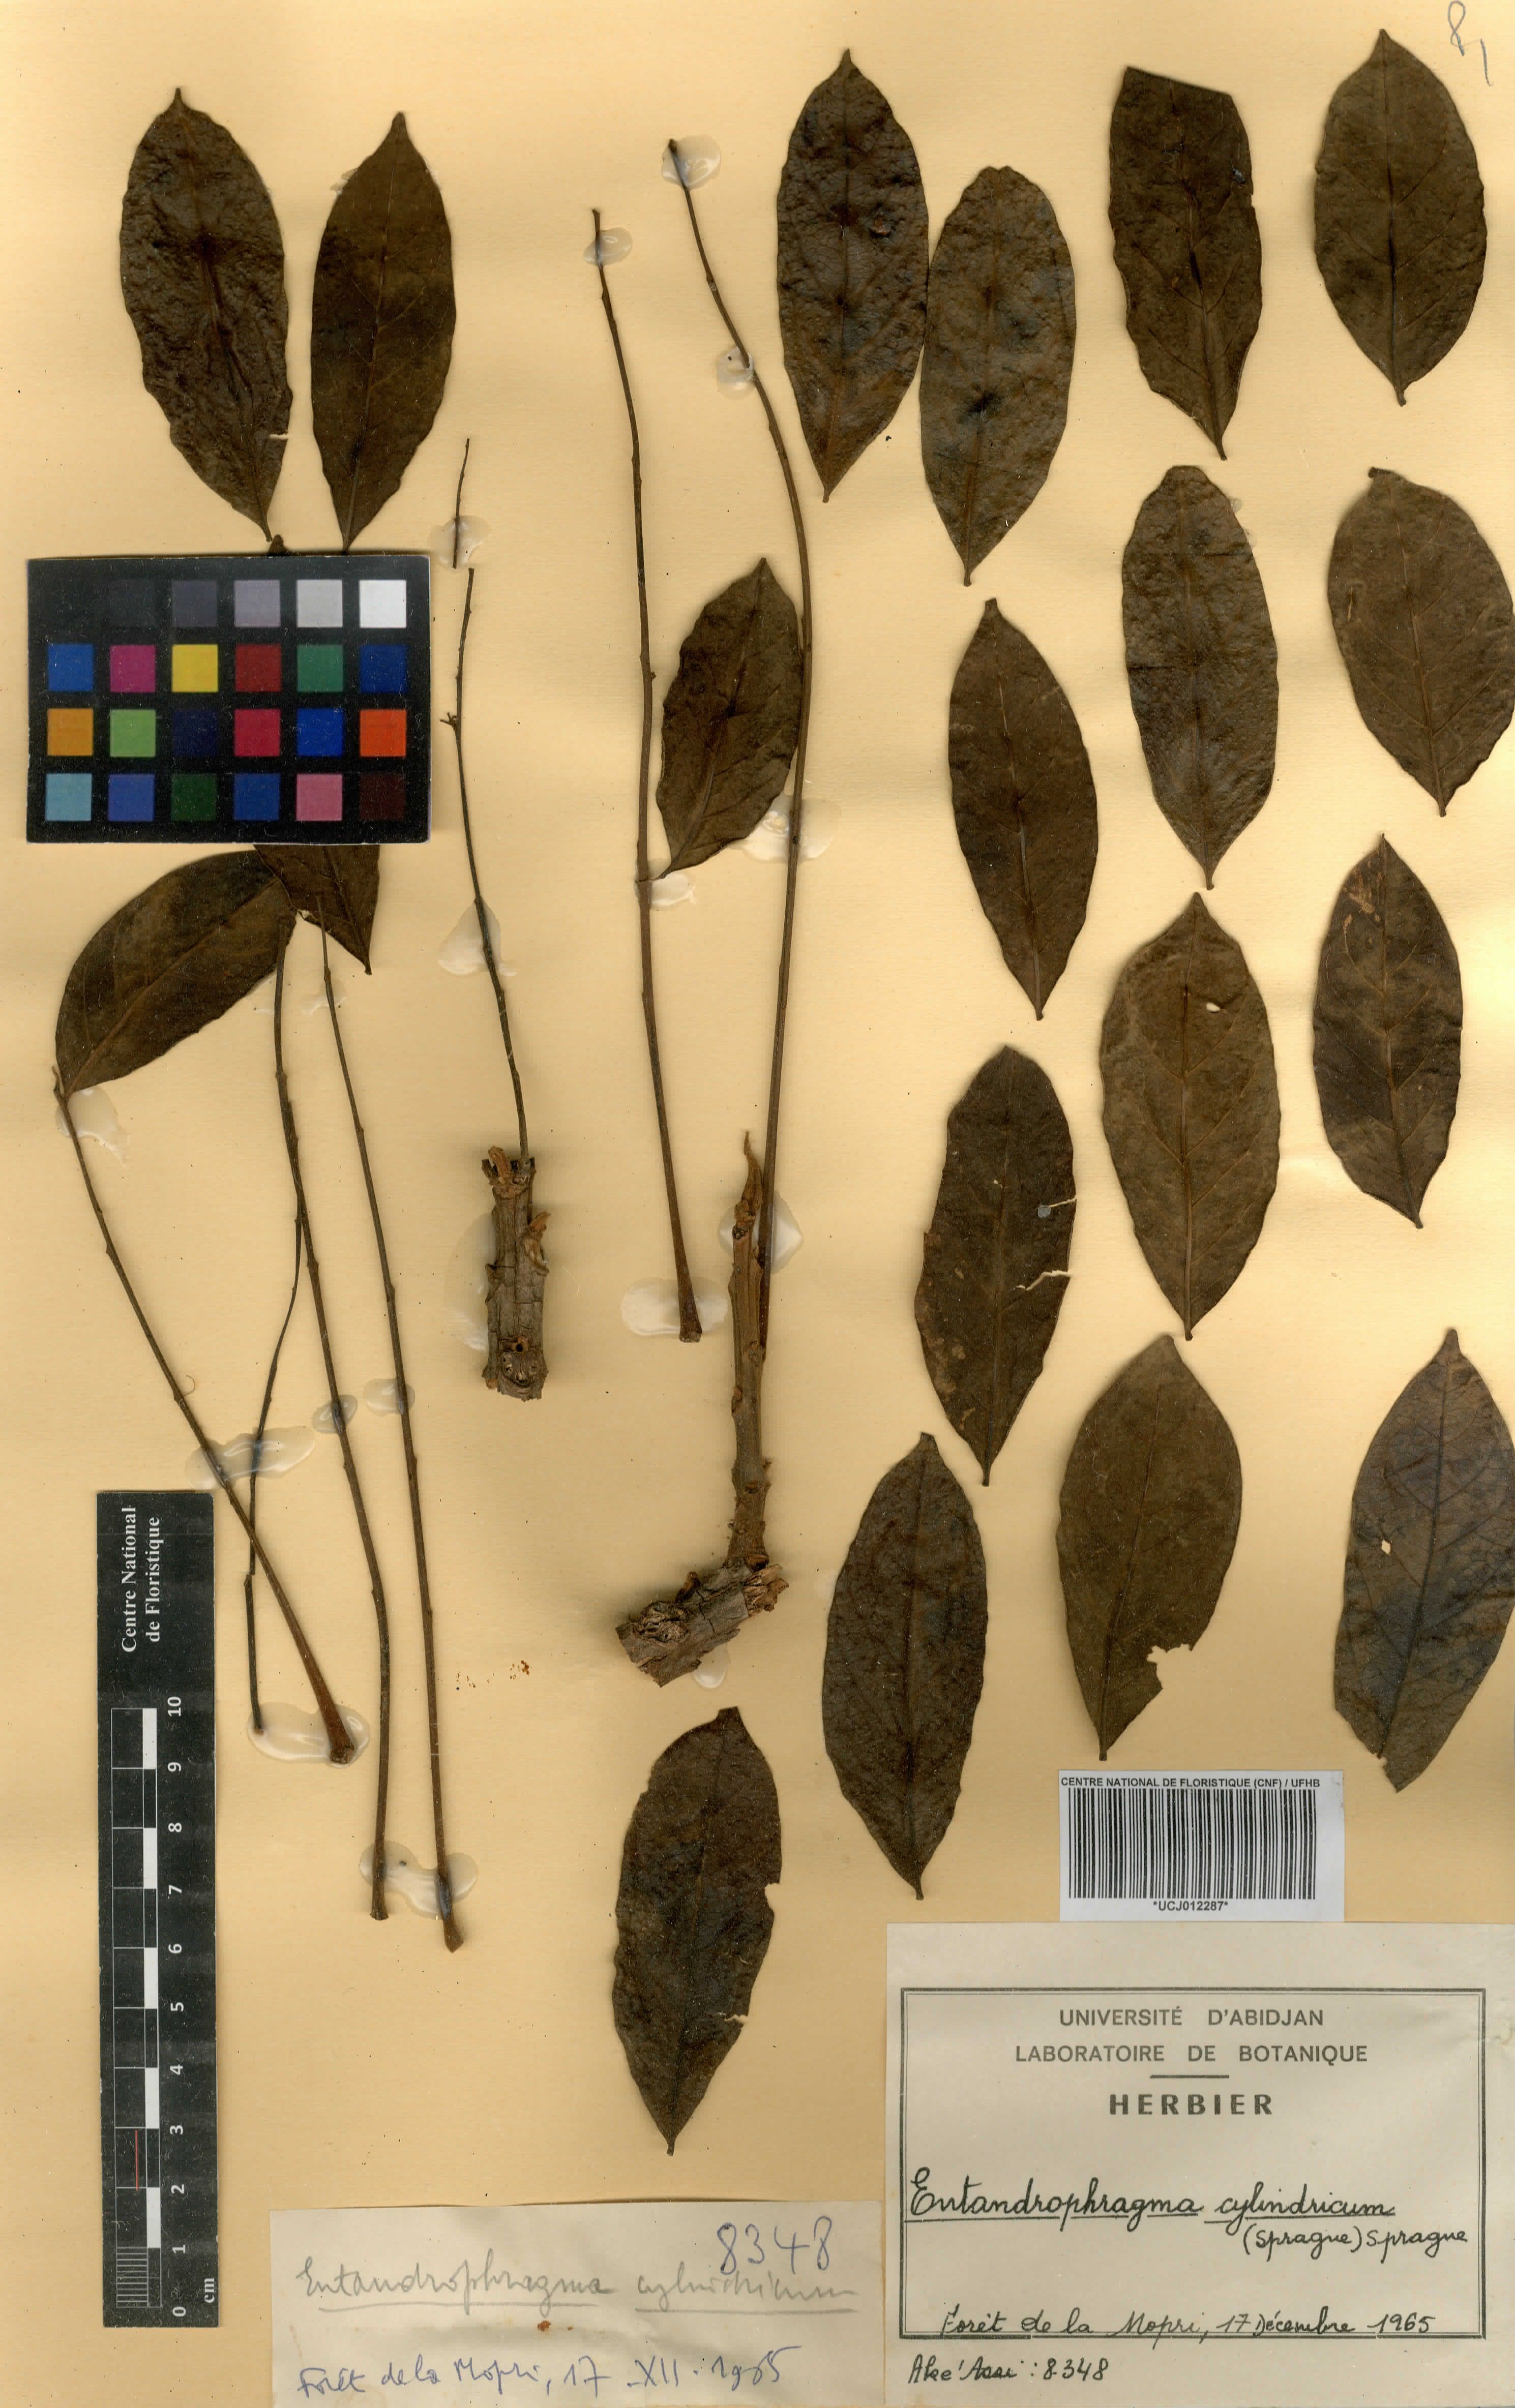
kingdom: Plantae
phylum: Tracheophyta
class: Magnoliopsida
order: Sapindales
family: Meliaceae
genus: Entandrophragma
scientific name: Entandrophragma cylindricum
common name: Sapele
